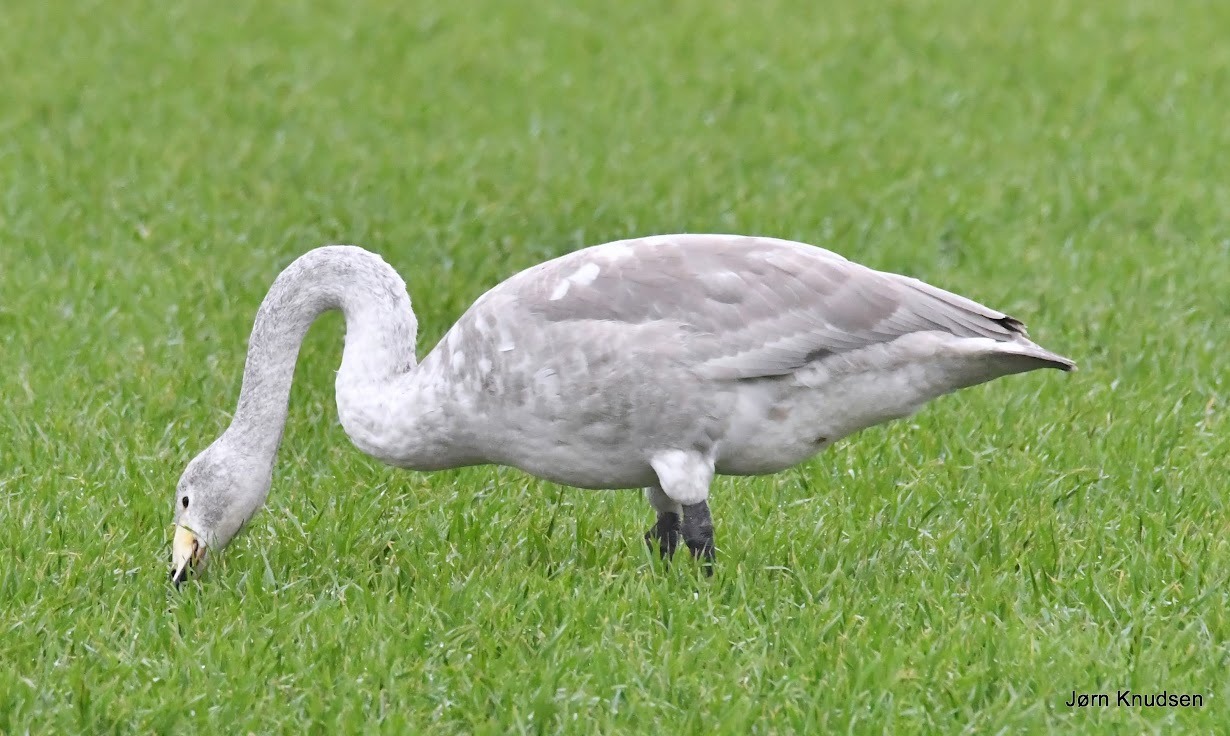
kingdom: Animalia
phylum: Chordata
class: Aves
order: Anseriformes
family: Anatidae
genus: Cygnus
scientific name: Cygnus cygnus
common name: Sangsvane
